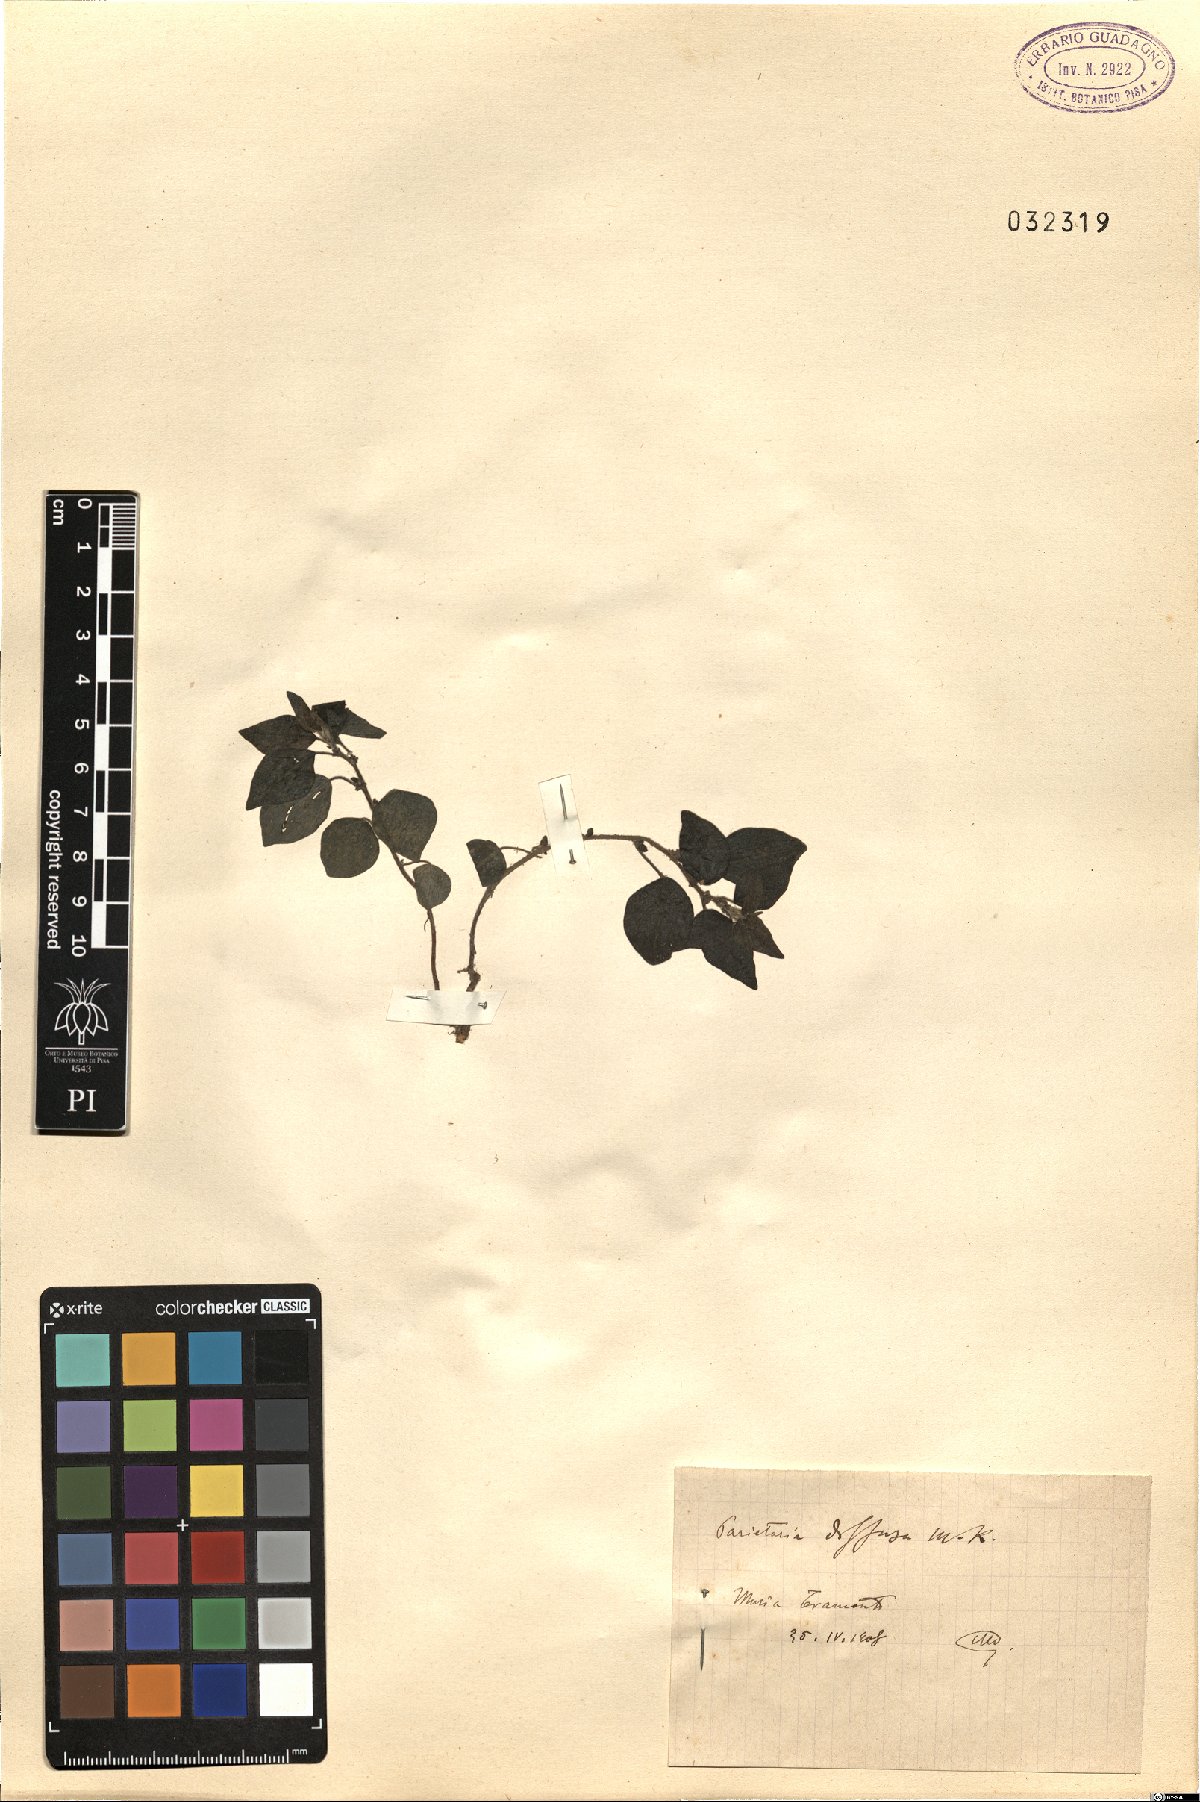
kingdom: Plantae
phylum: Tracheophyta
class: Magnoliopsida
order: Rosales
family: Urticaceae
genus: Parietaria
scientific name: Parietaria judaica
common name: Pellitory-of-the-wall
